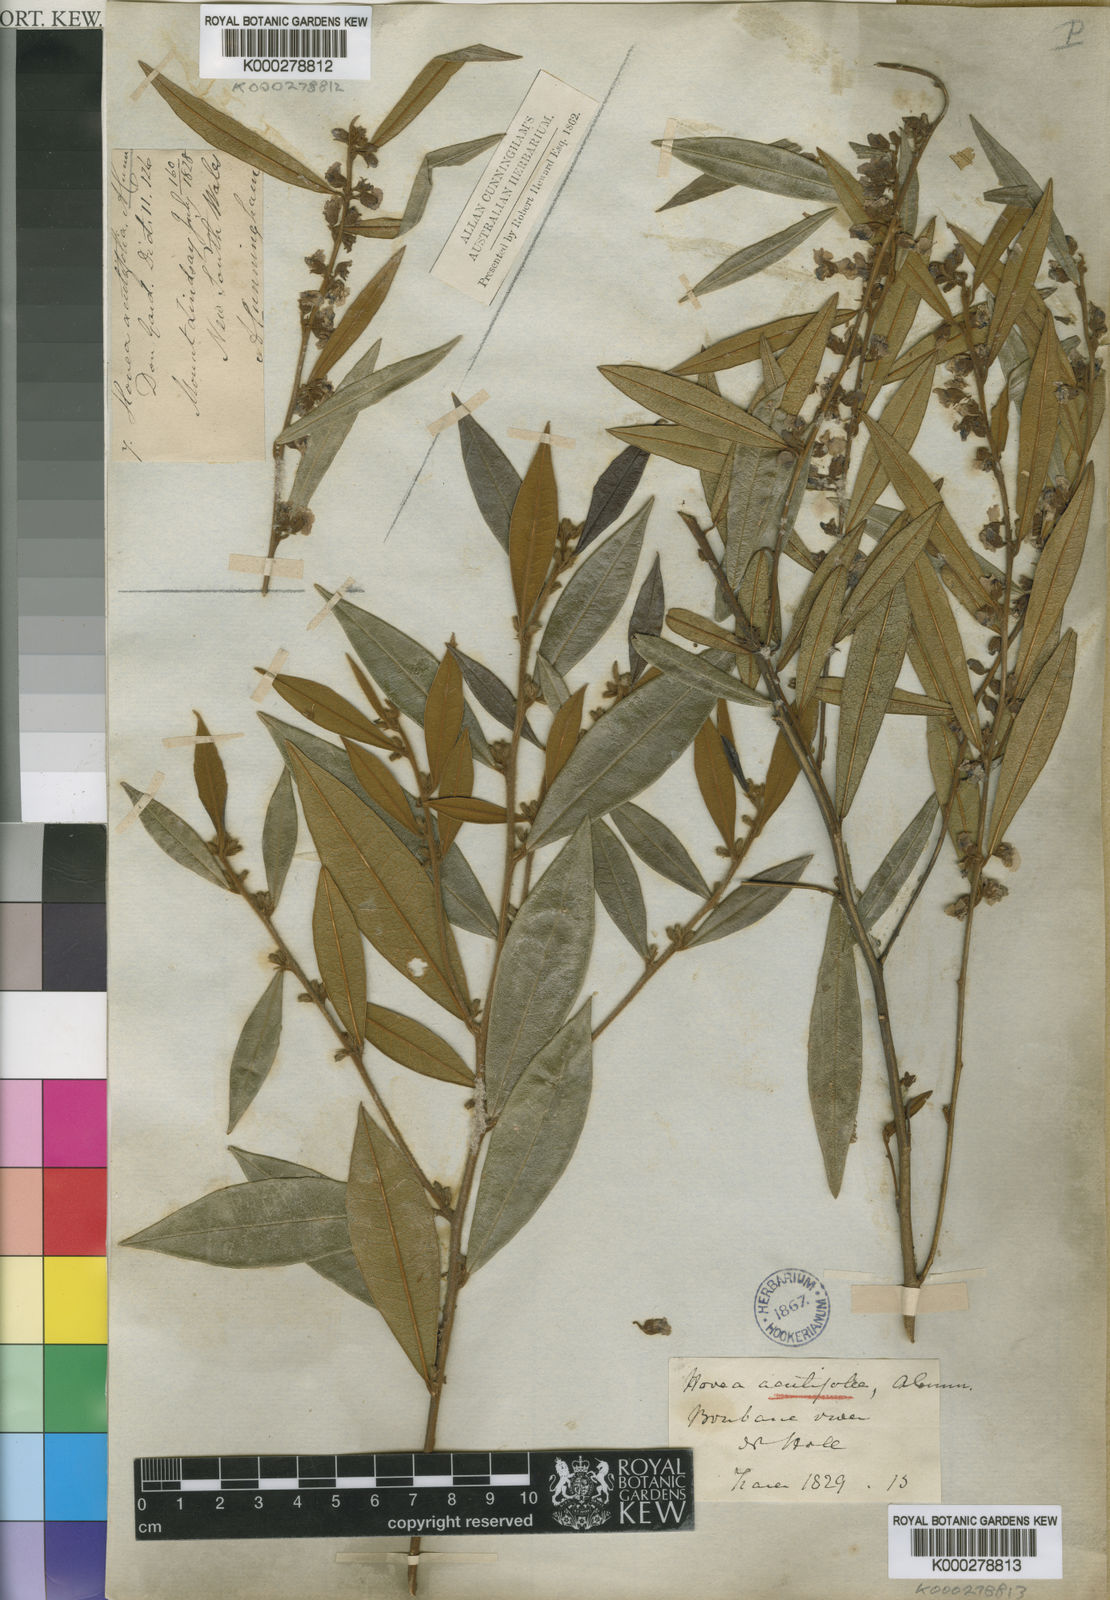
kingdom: Plantae
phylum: Tracheophyta
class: Magnoliopsida
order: Fabales
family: Fabaceae
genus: Hovea
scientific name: Hovea acutifolia
